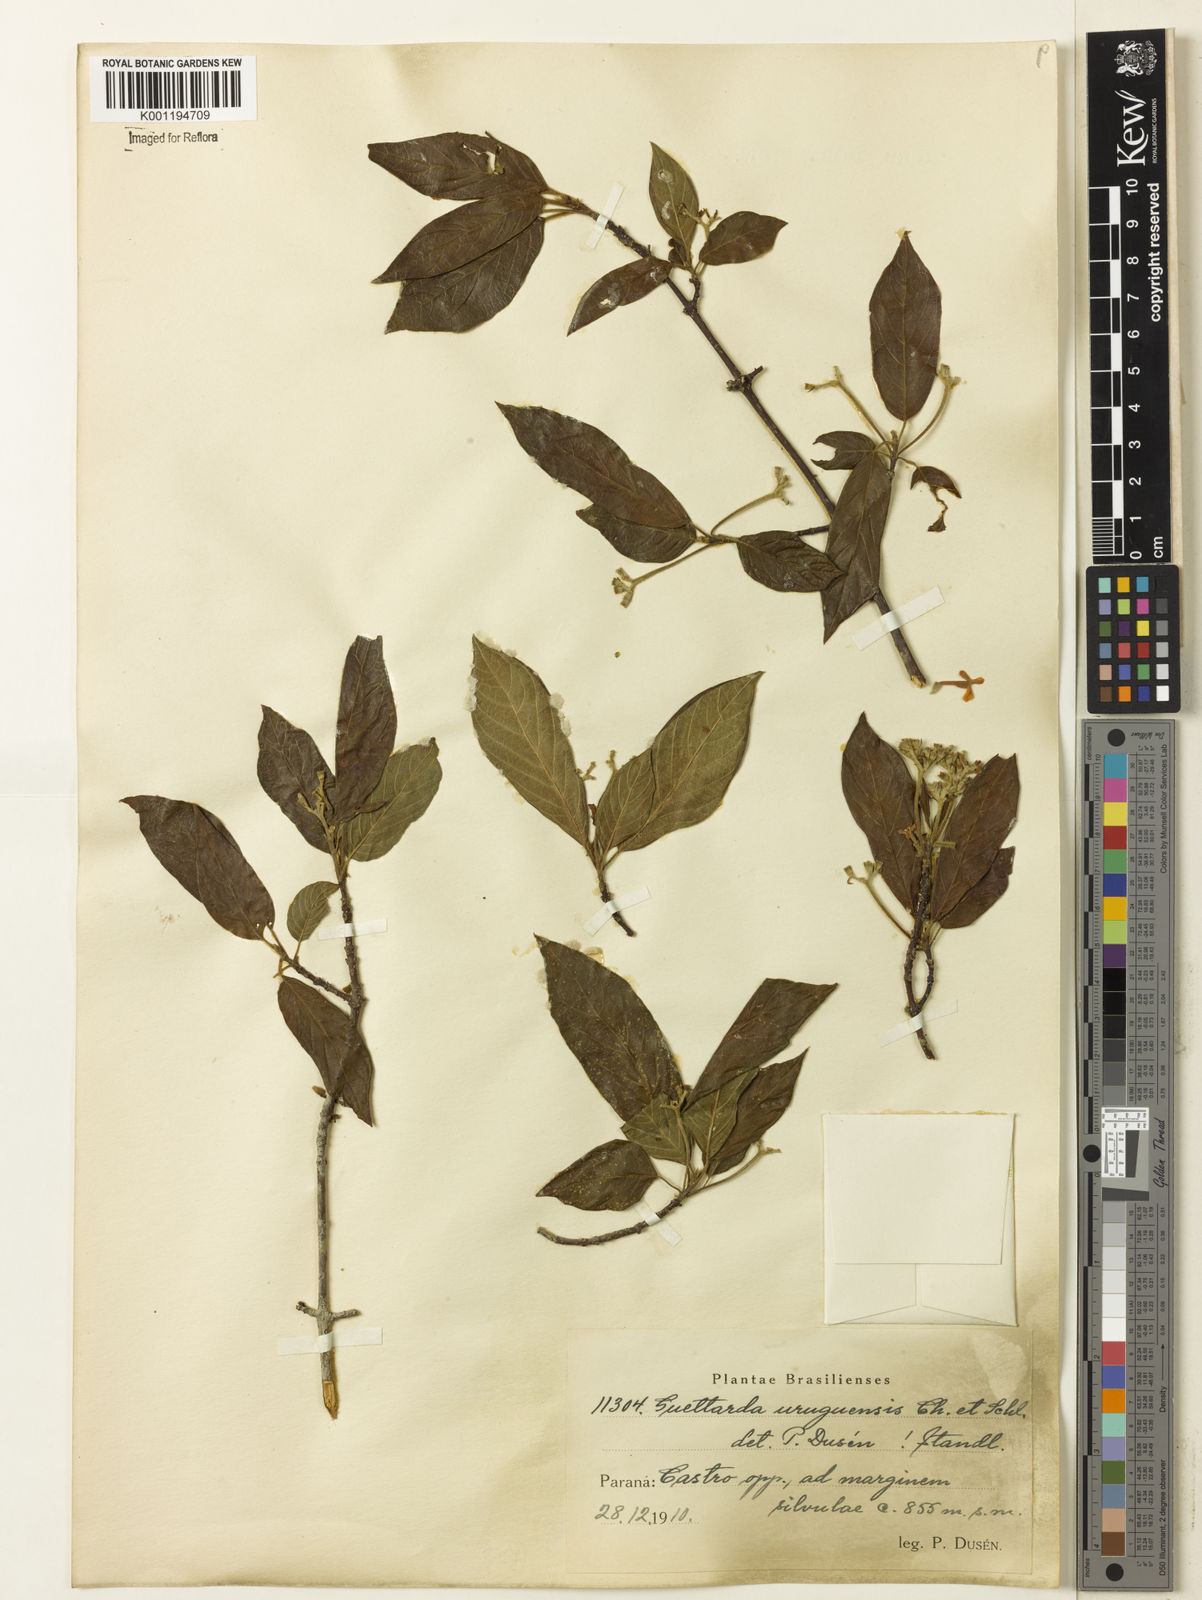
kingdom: Plantae
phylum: Tracheophyta
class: Magnoliopsida
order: Gentianales
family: Rubiaceae
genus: Guettarda
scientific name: Guettarda uruguensis
